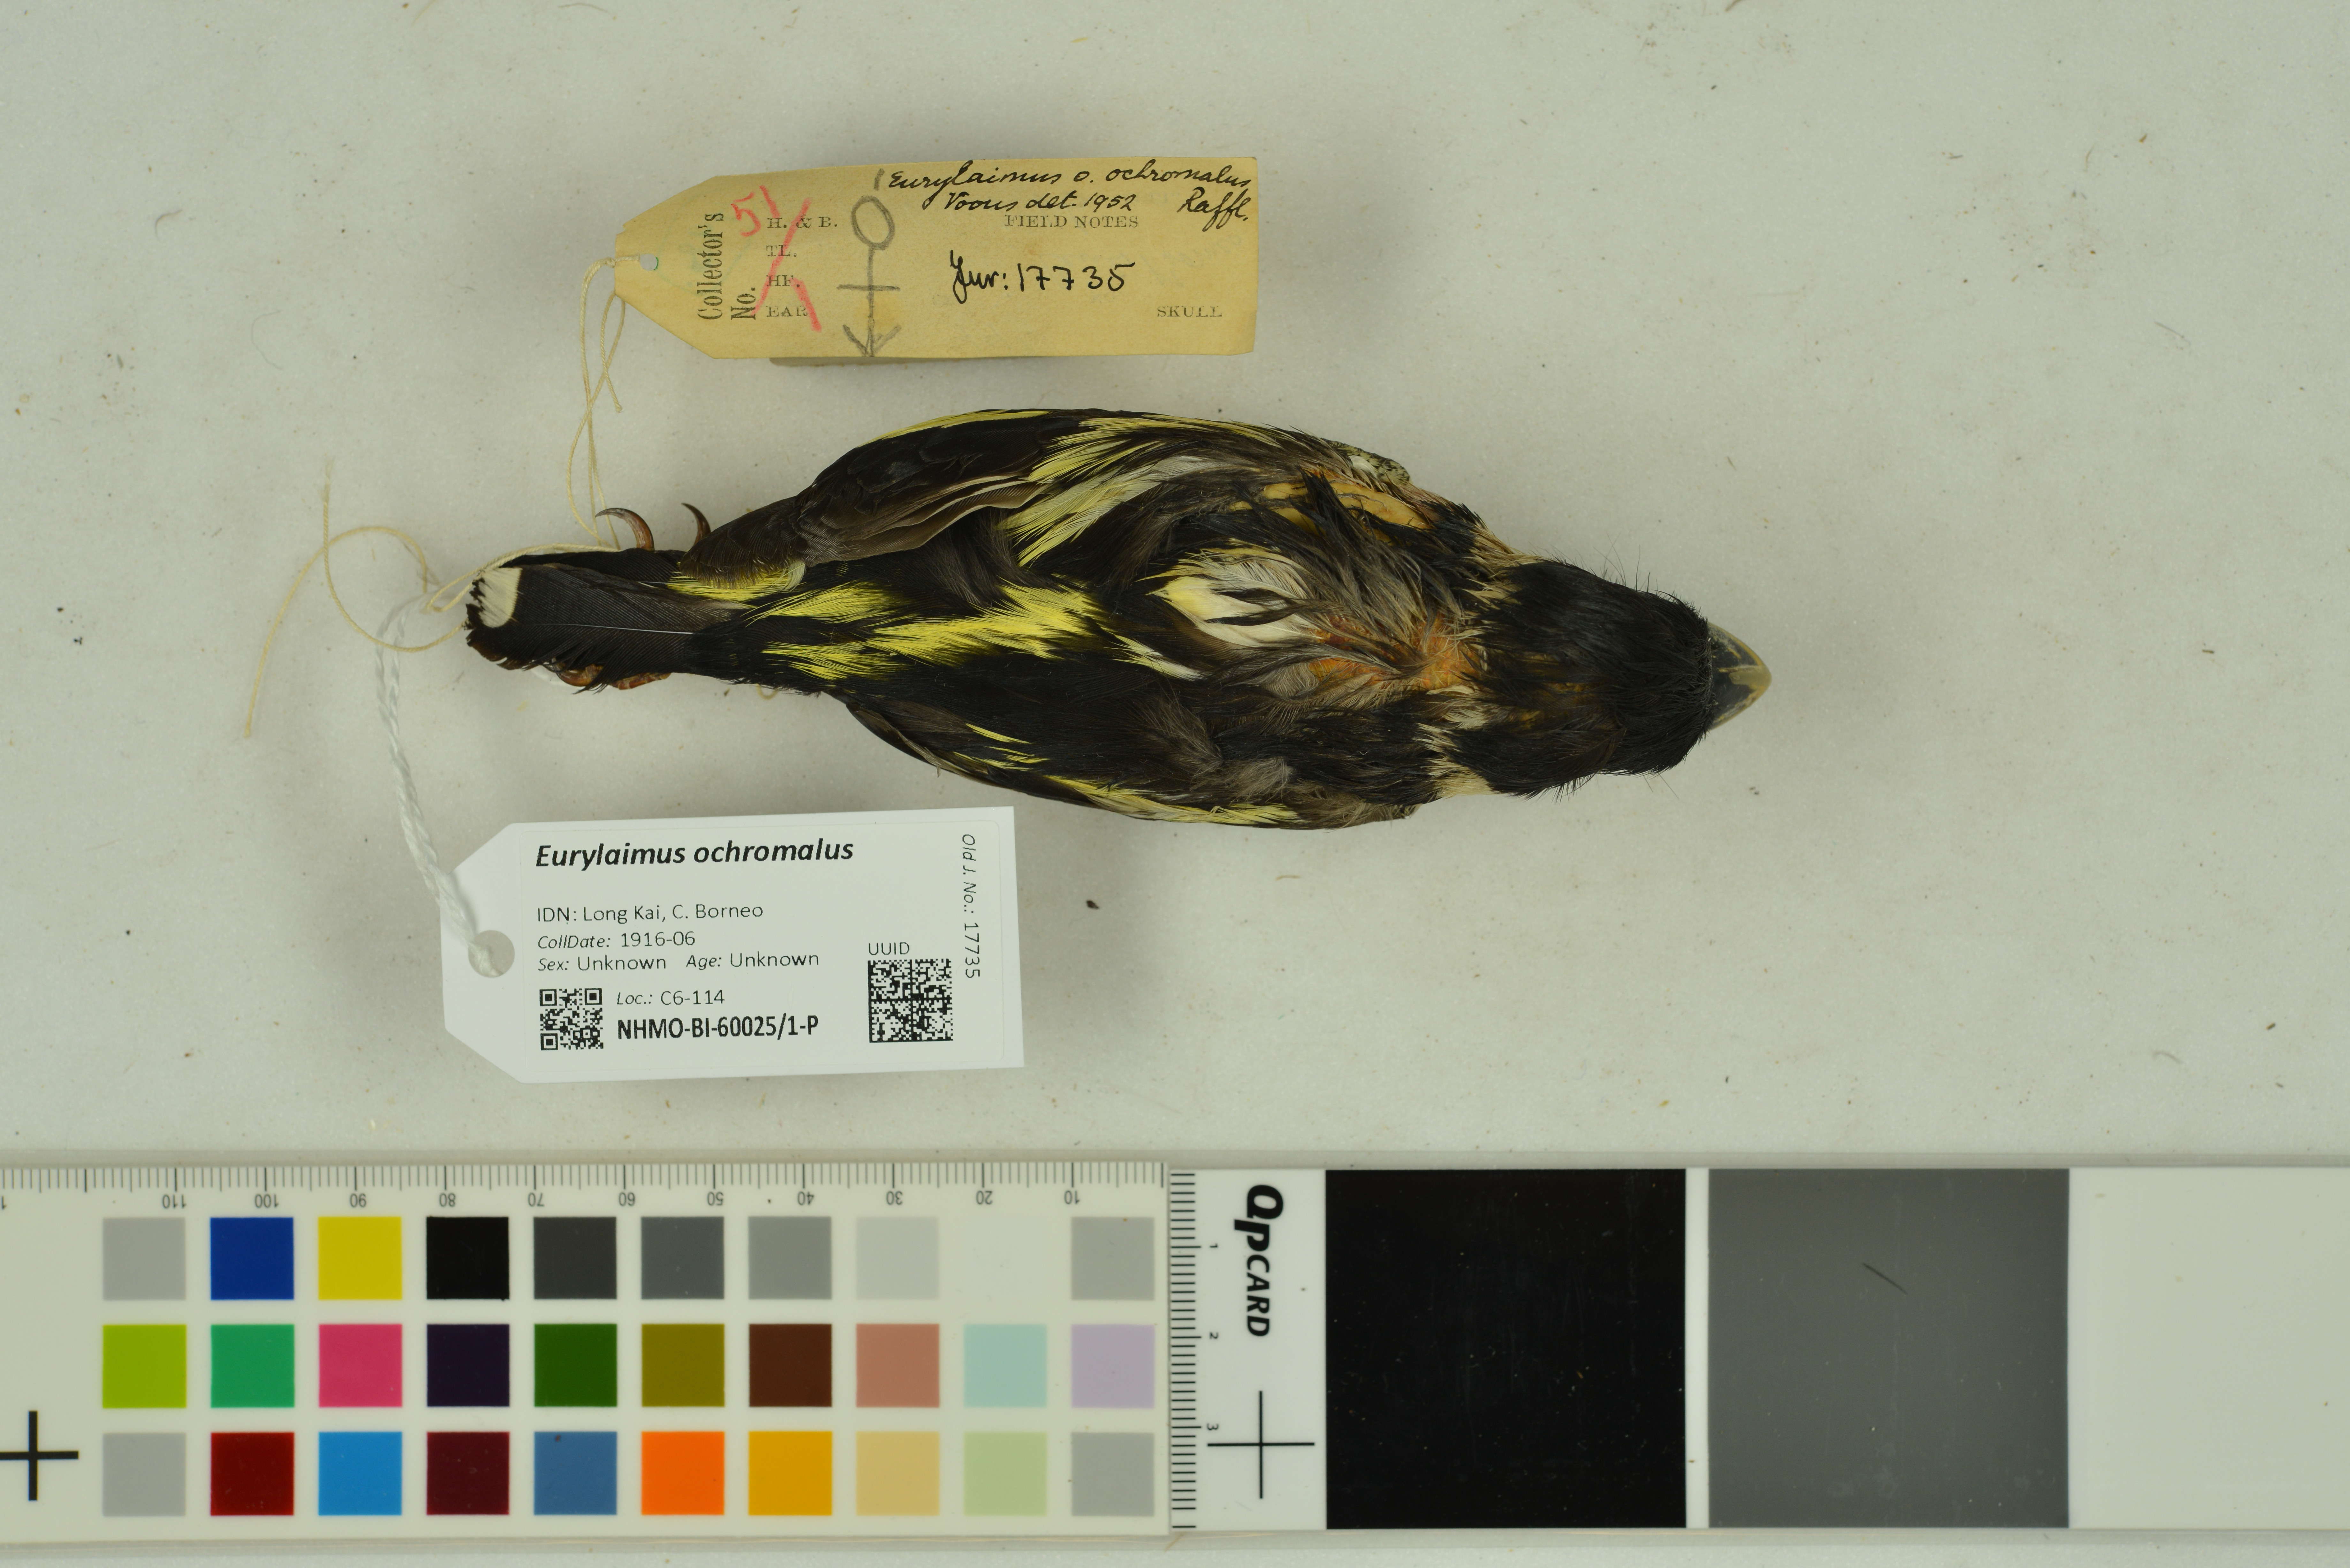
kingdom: Animalia
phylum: Chordata
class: Aves
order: Passeriformes
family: Eurylaimidae
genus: Eurylaimus
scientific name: Eurylaimus ochromalus
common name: Black-and-yellow broadbill
